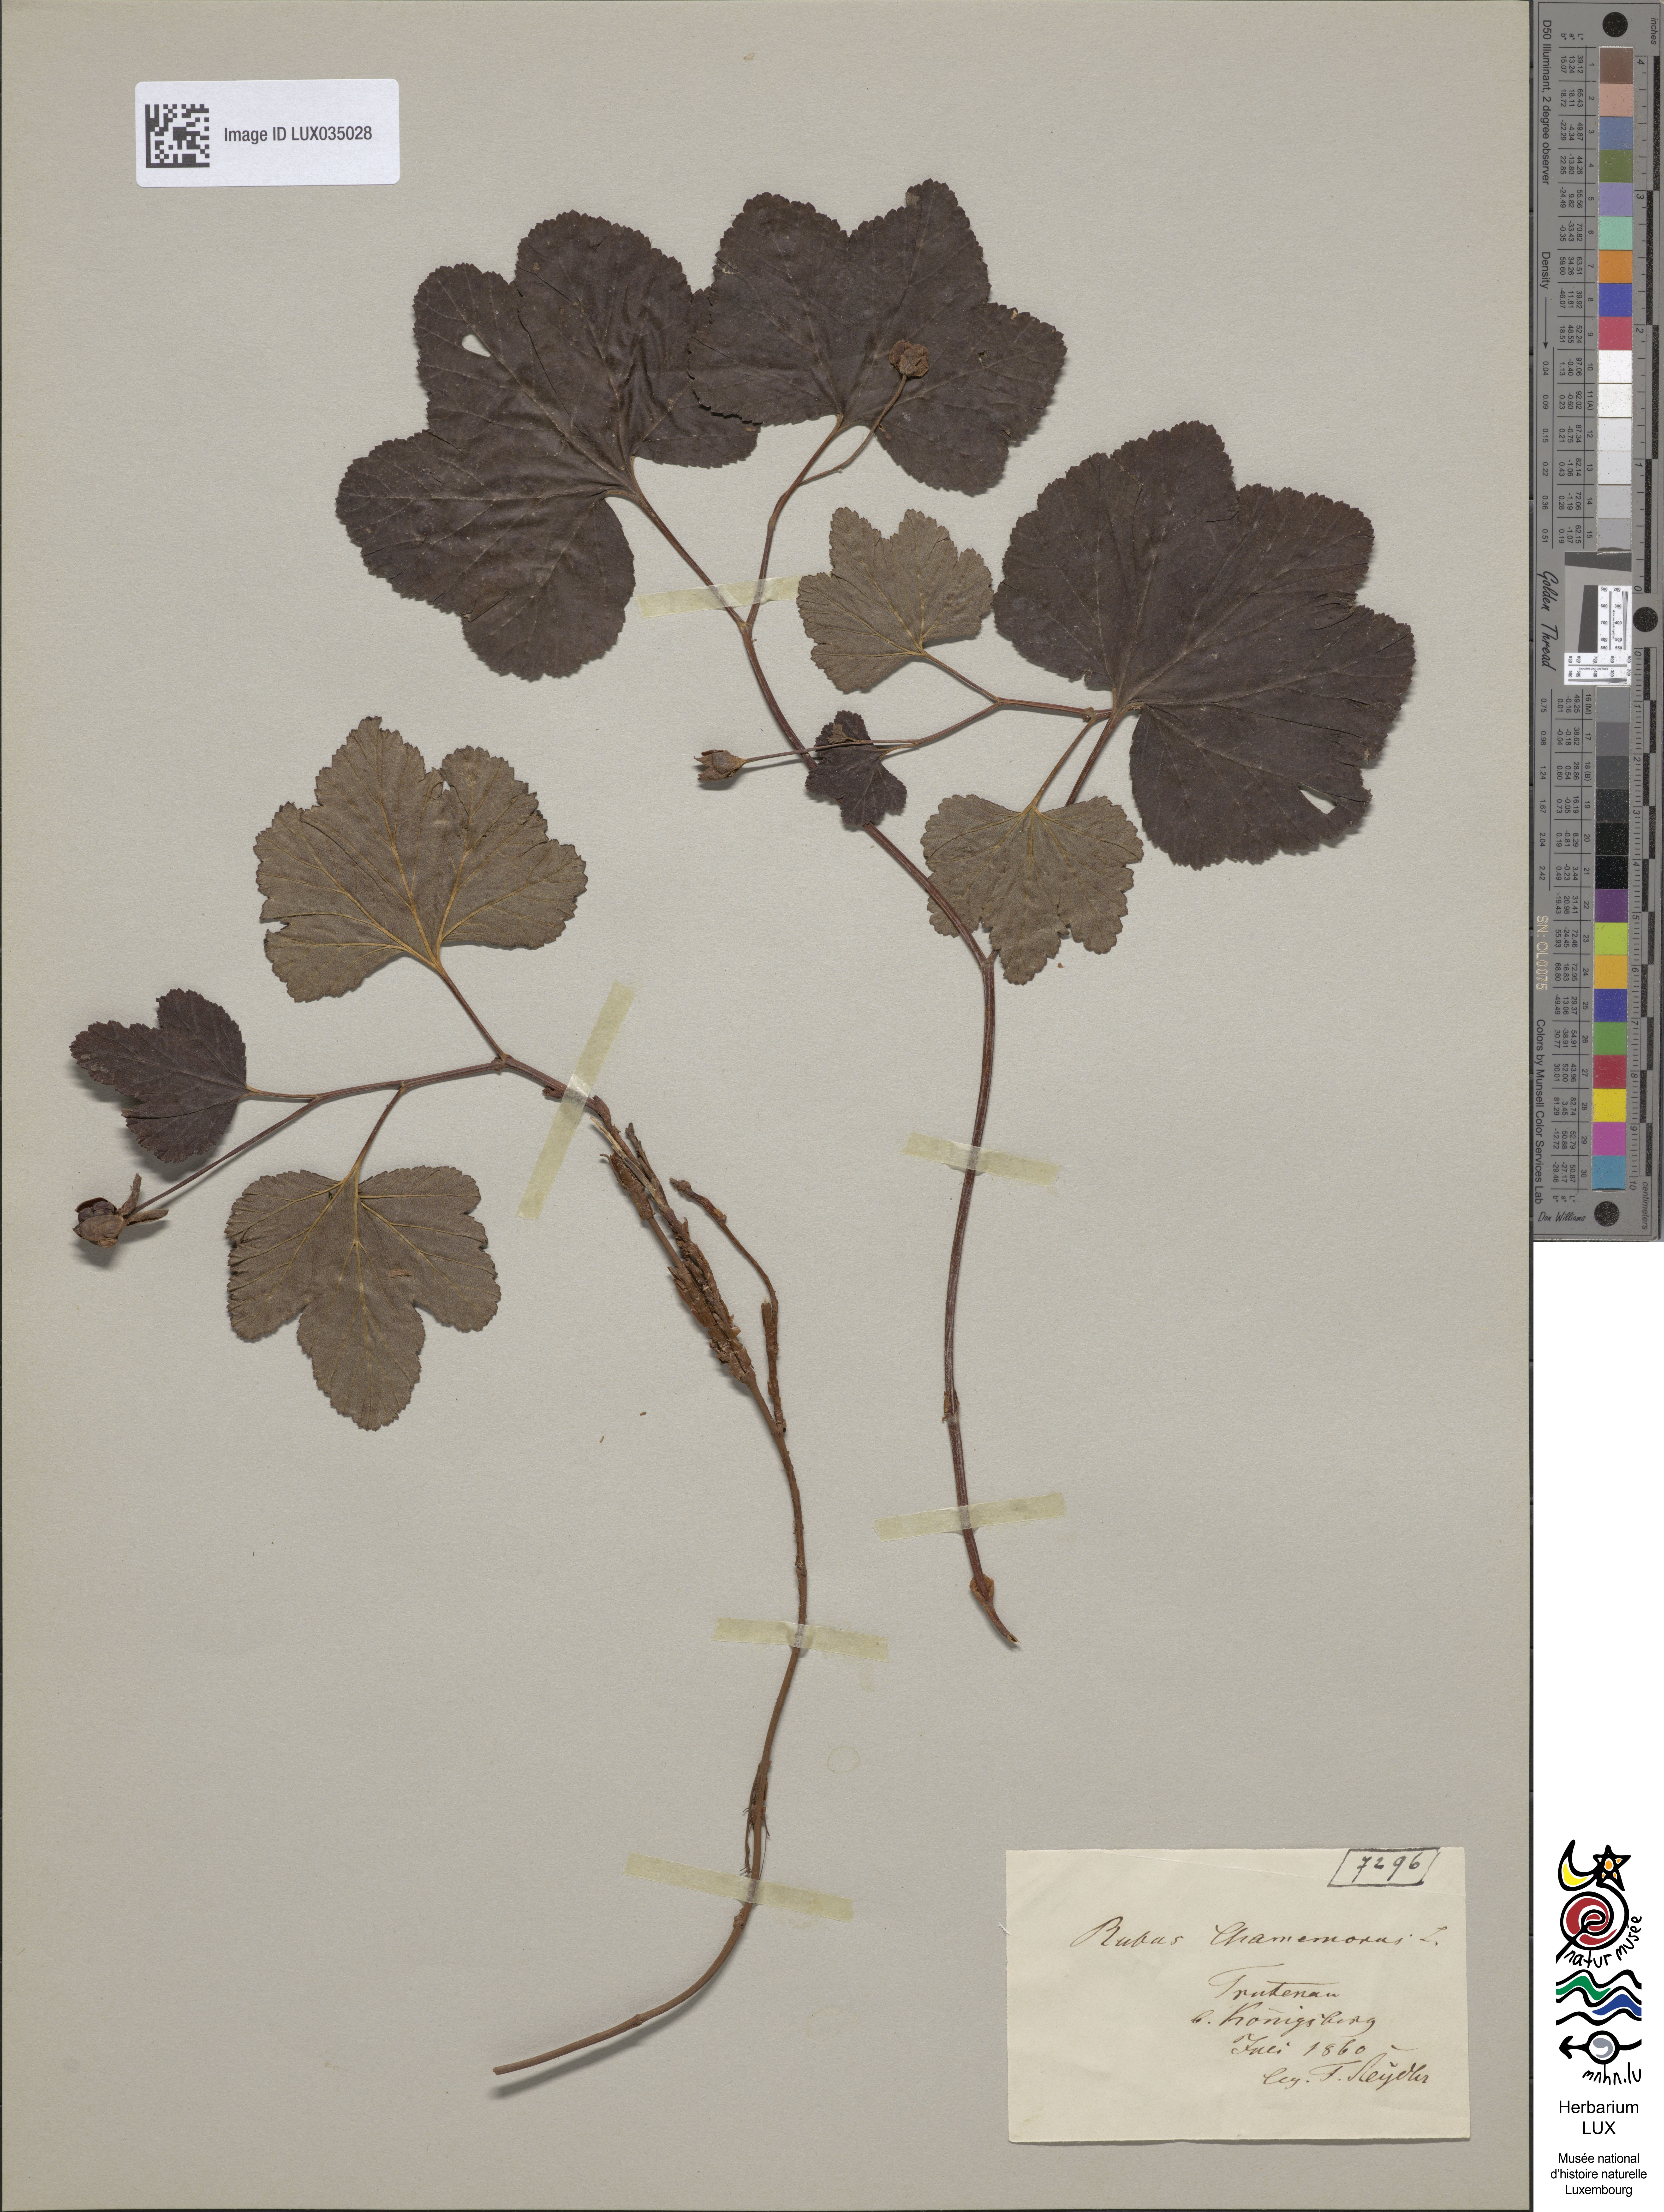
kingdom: Plantae
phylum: Tracheophyta
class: Magnoliopsida
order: Rosales
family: Rosaceae
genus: Rubus
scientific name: Rubus chamaemorus
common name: Cloudberry
